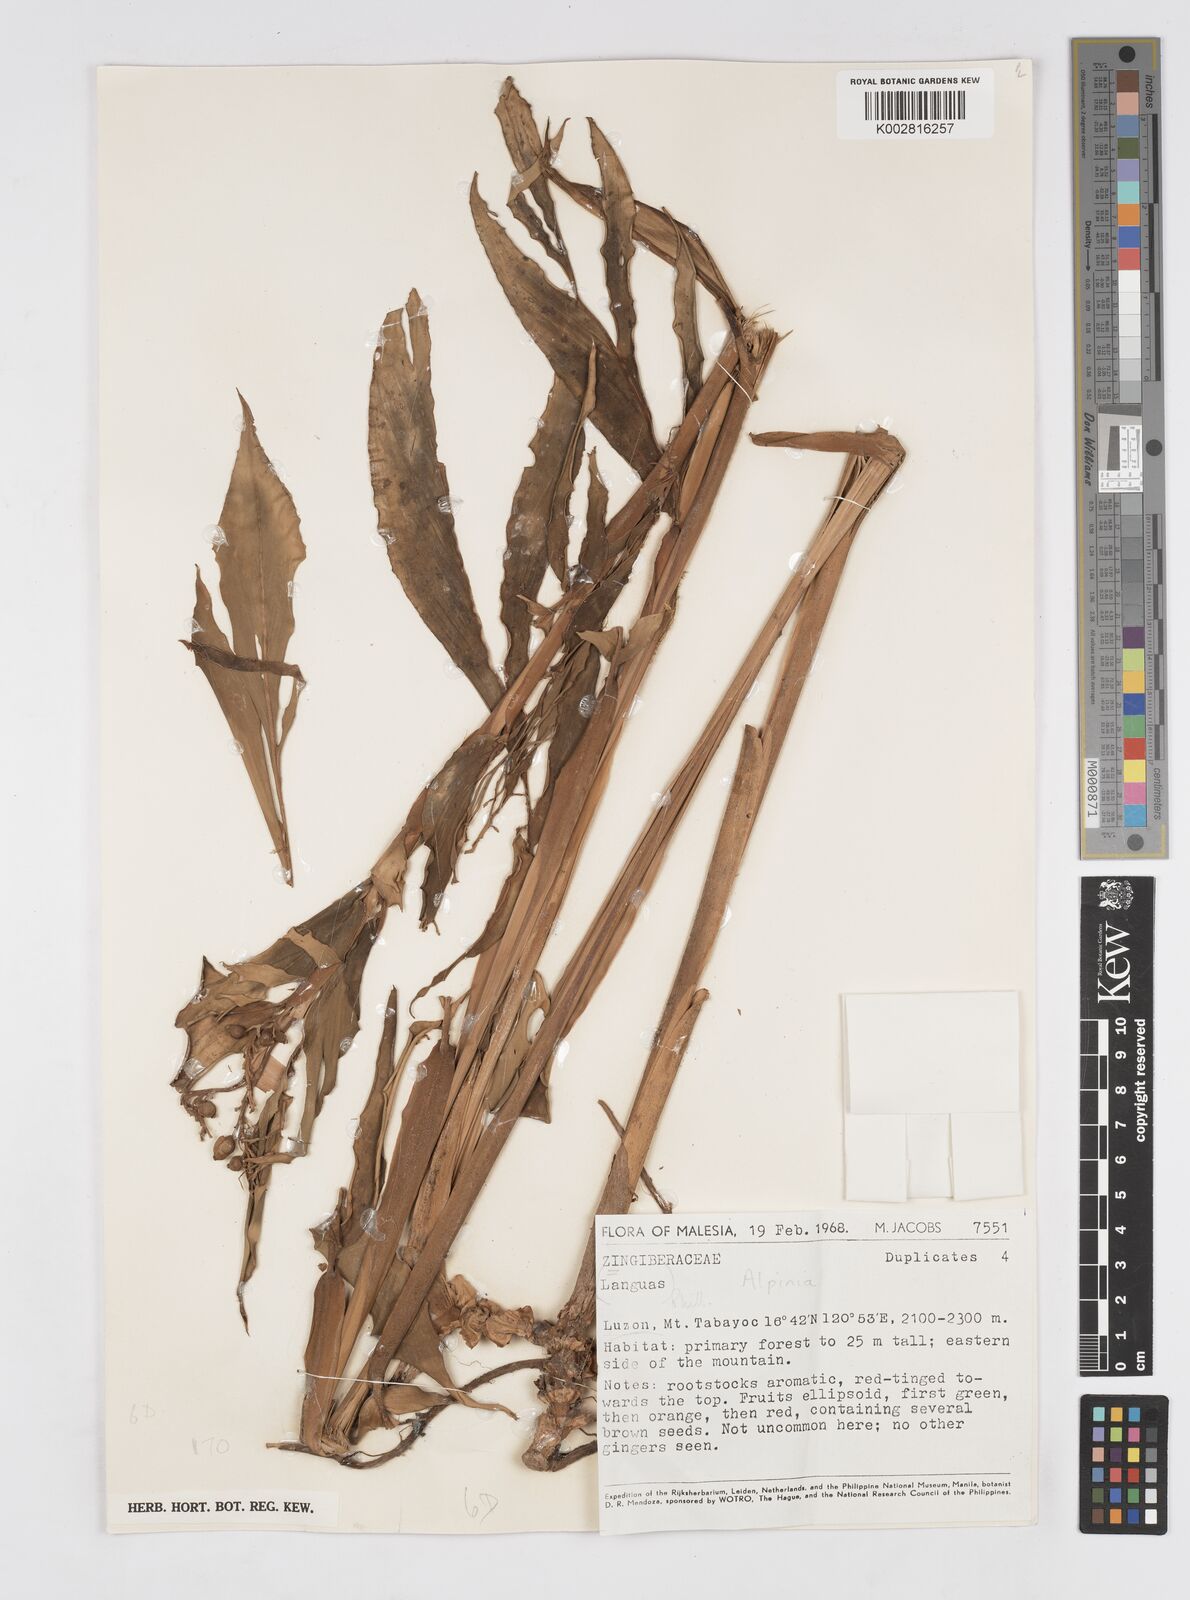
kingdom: Plantae
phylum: Tracheophyta
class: Liliopsida
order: Zingiberales
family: Zingiberaceae
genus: Alpinia
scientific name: Alpinia
